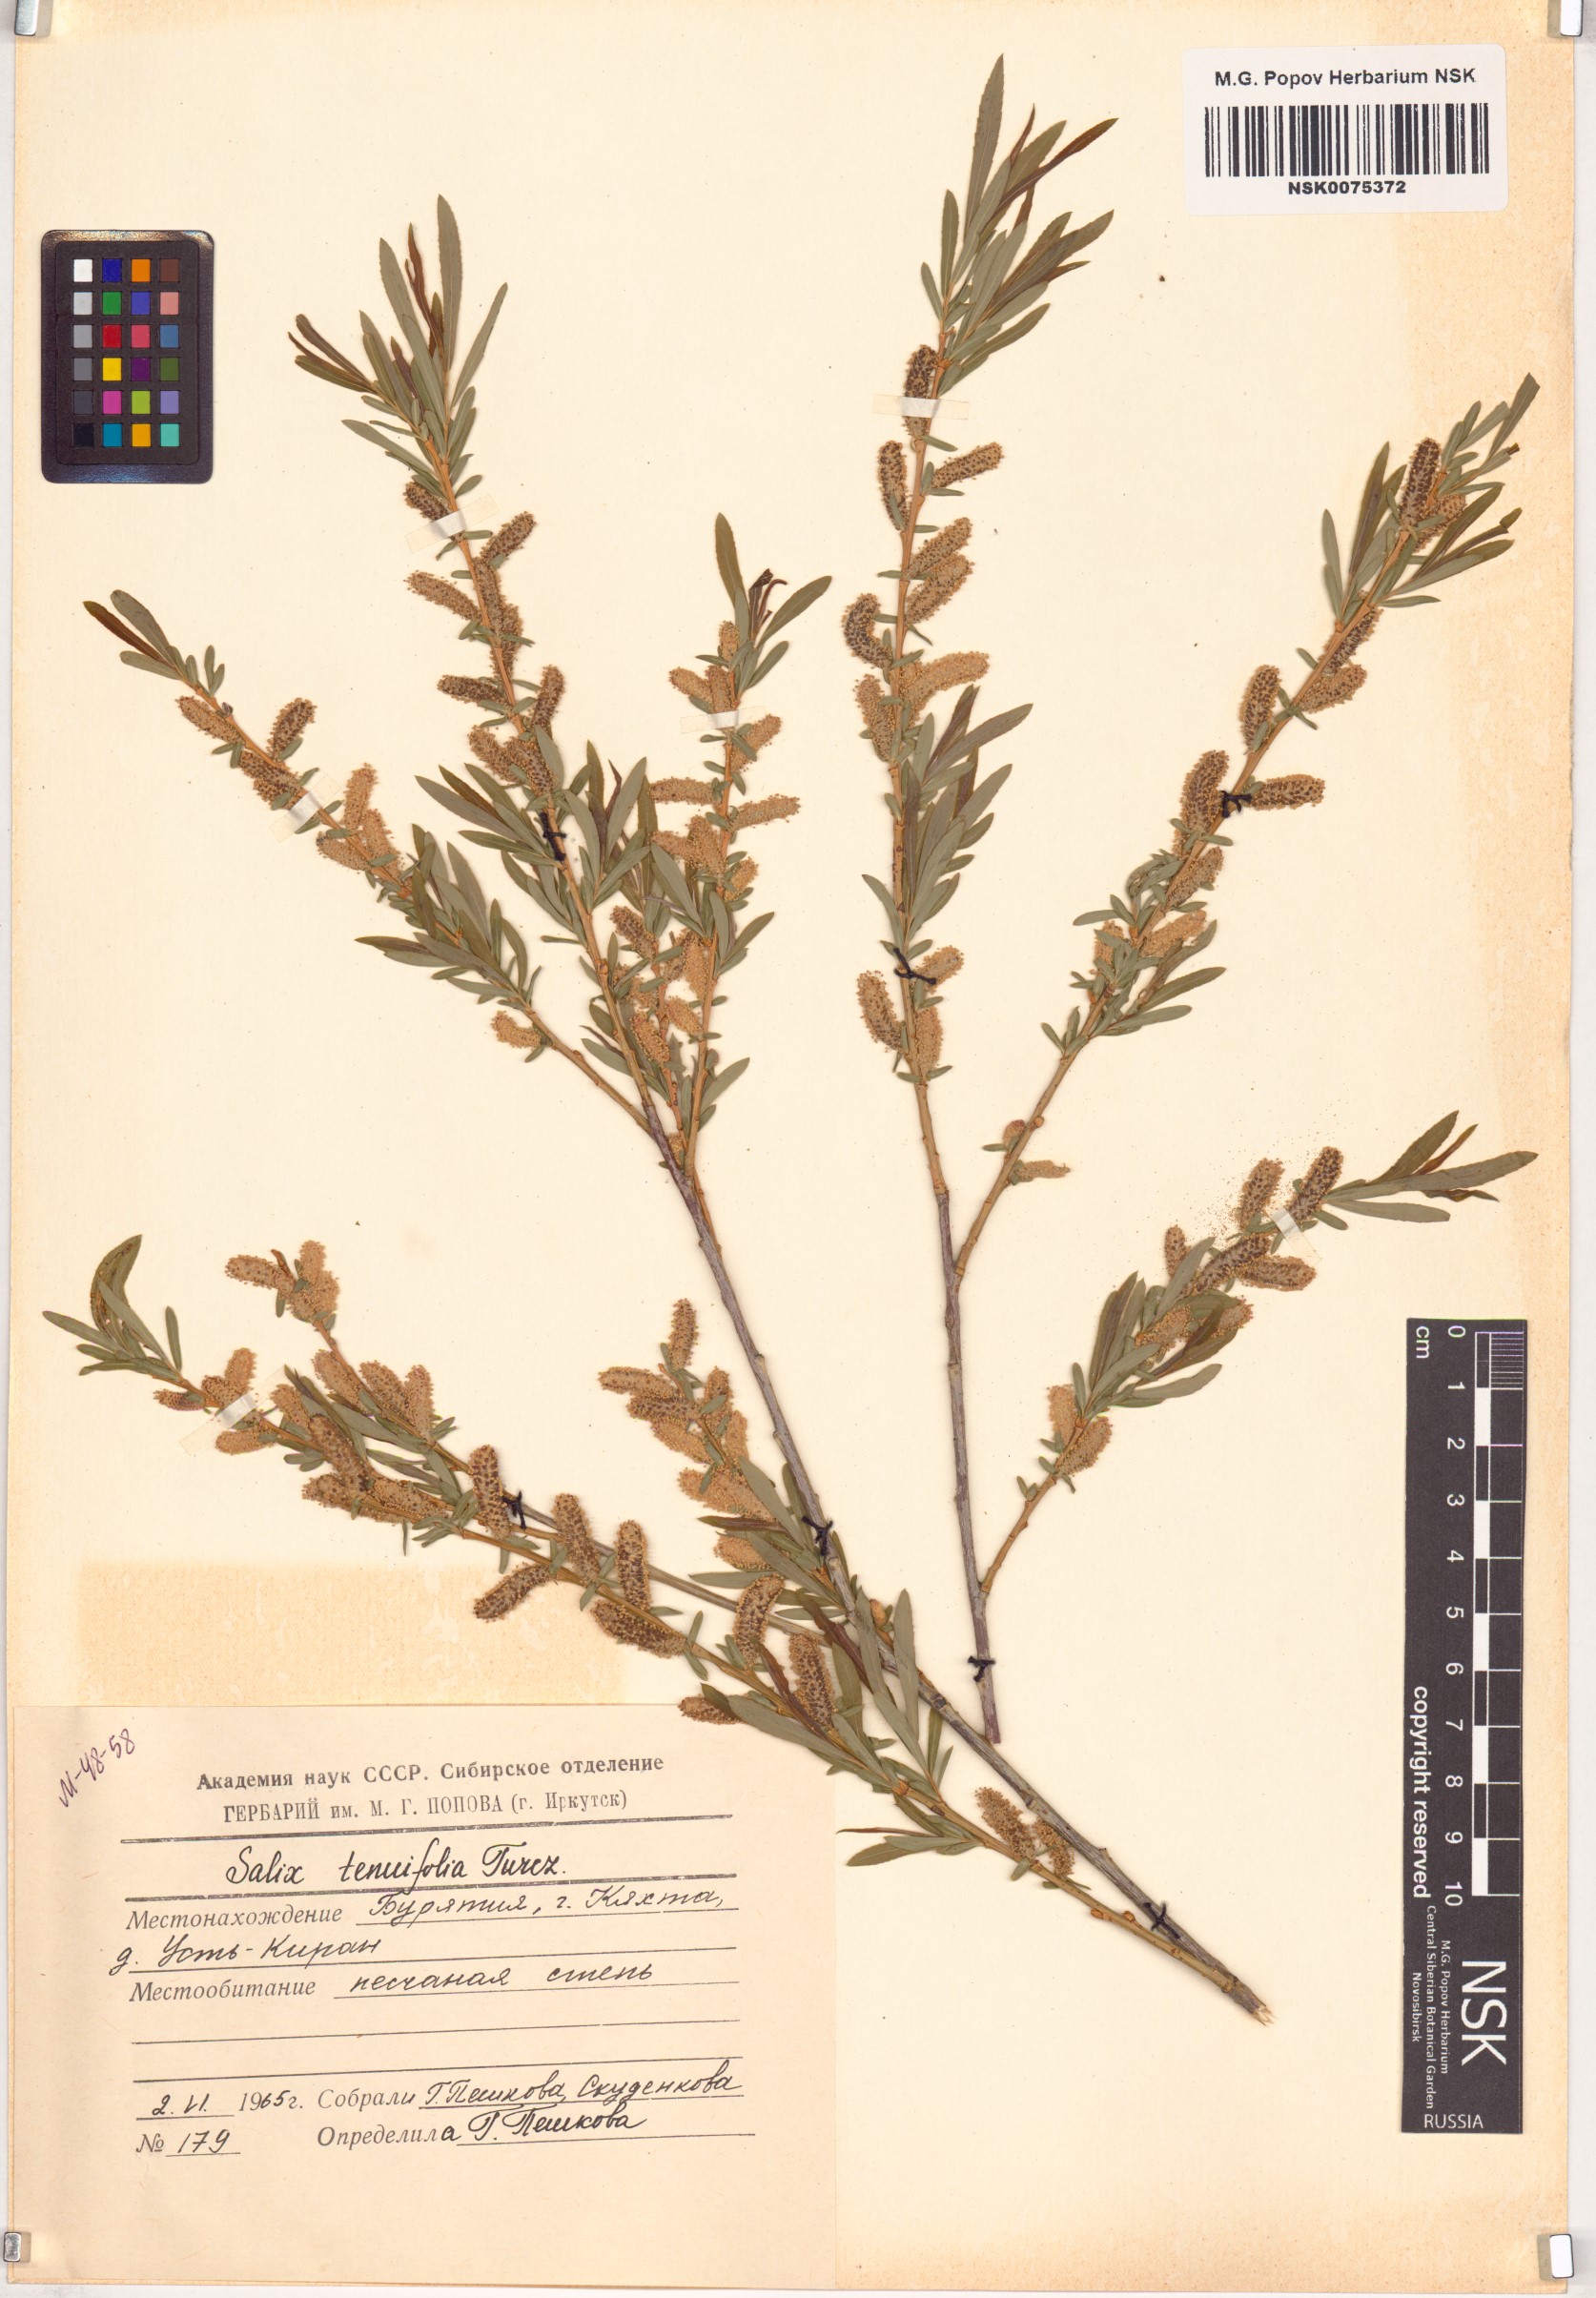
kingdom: Plantae
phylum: Tracheophyta
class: Magnoliopsida
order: Malpighiales
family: Salicaceae
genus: Salix
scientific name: Salix
